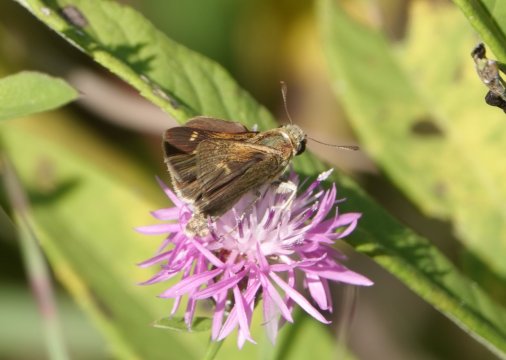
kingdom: Animalia
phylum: Arthropoda
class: Insecta
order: Lepidoptera
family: Hesperiidae
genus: Polites
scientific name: Polites themistocles
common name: Tawny-edged Skipper
